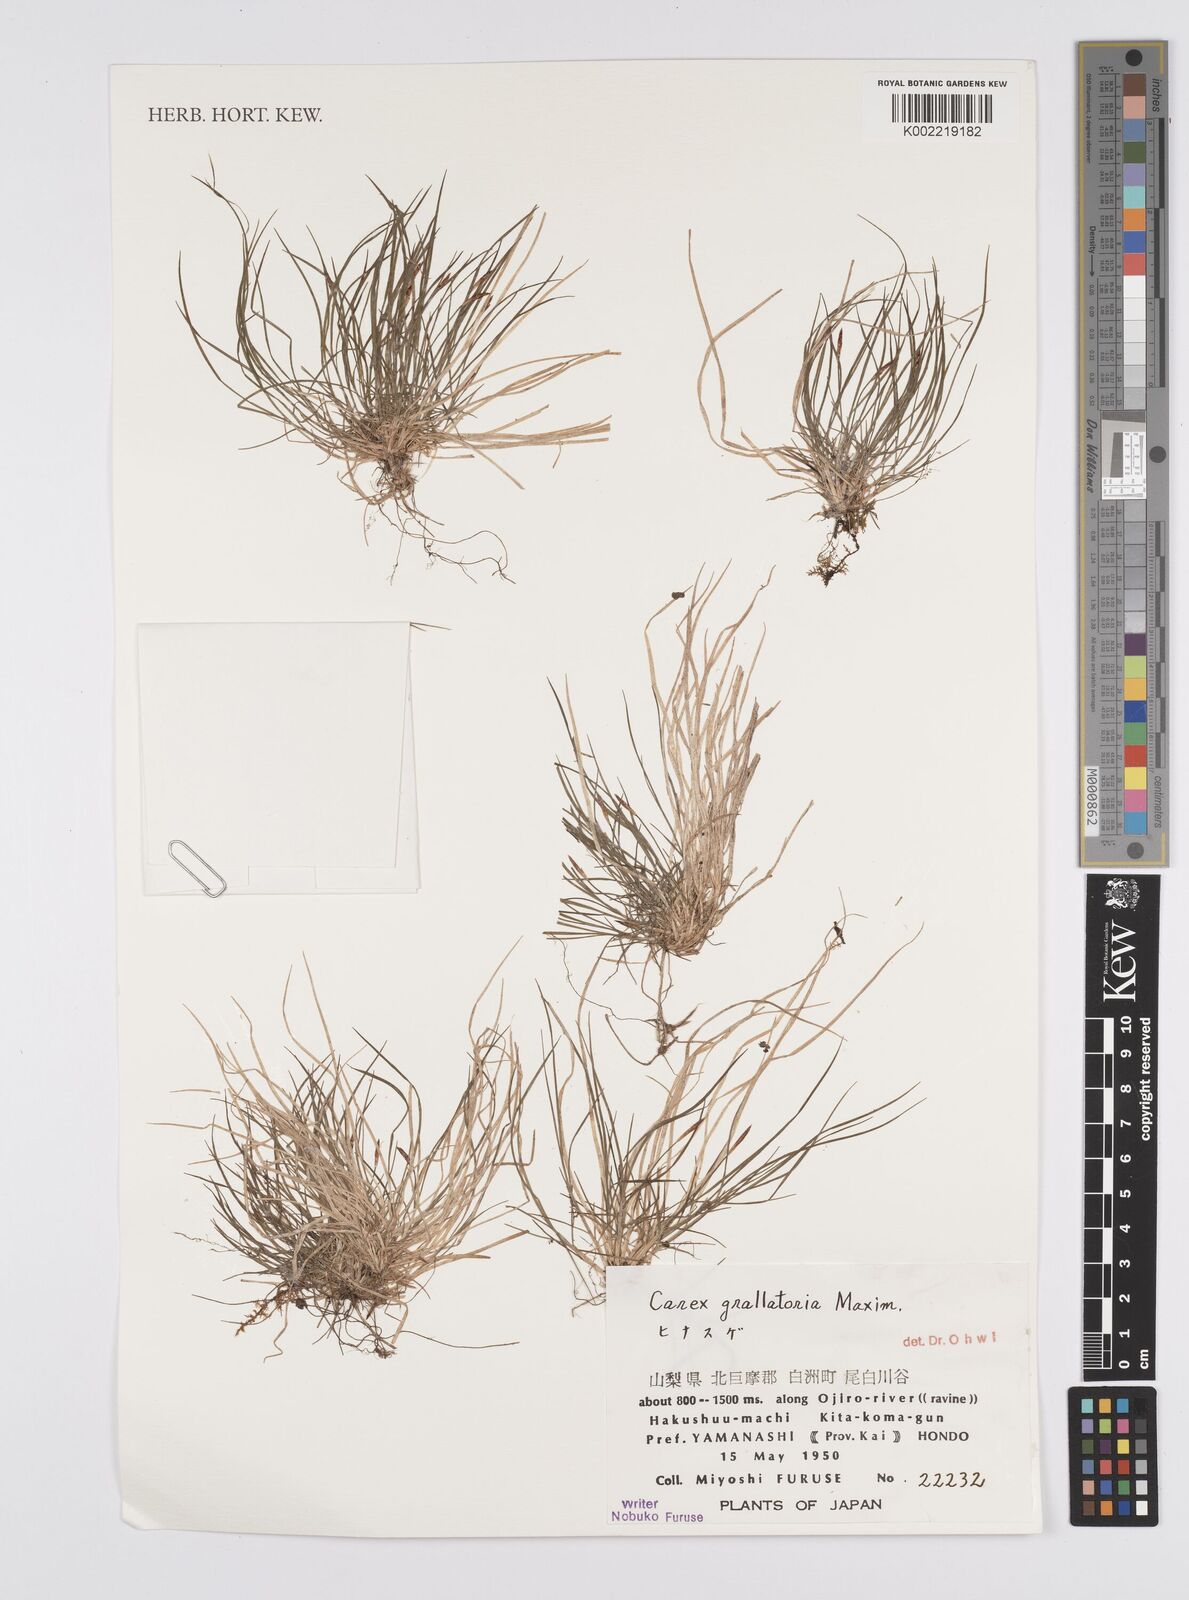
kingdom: Plantae
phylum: Tracheophyta
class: Liliopsida
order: Poales
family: Cyperaceae
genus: Carex
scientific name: Carex grallatoria
